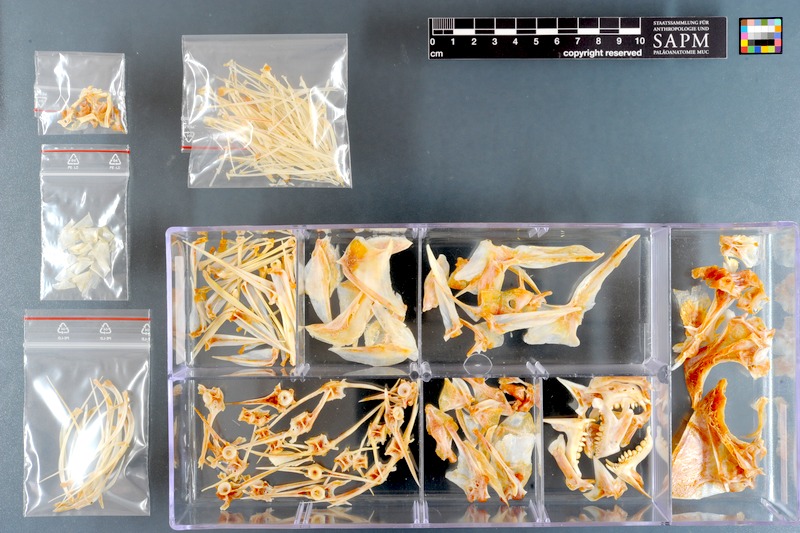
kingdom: Animalia
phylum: Chordata
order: Perciformes
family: Sparidae
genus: Chrysoblephus
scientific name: Chrysoblephus cristiceps
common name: Dageraad
